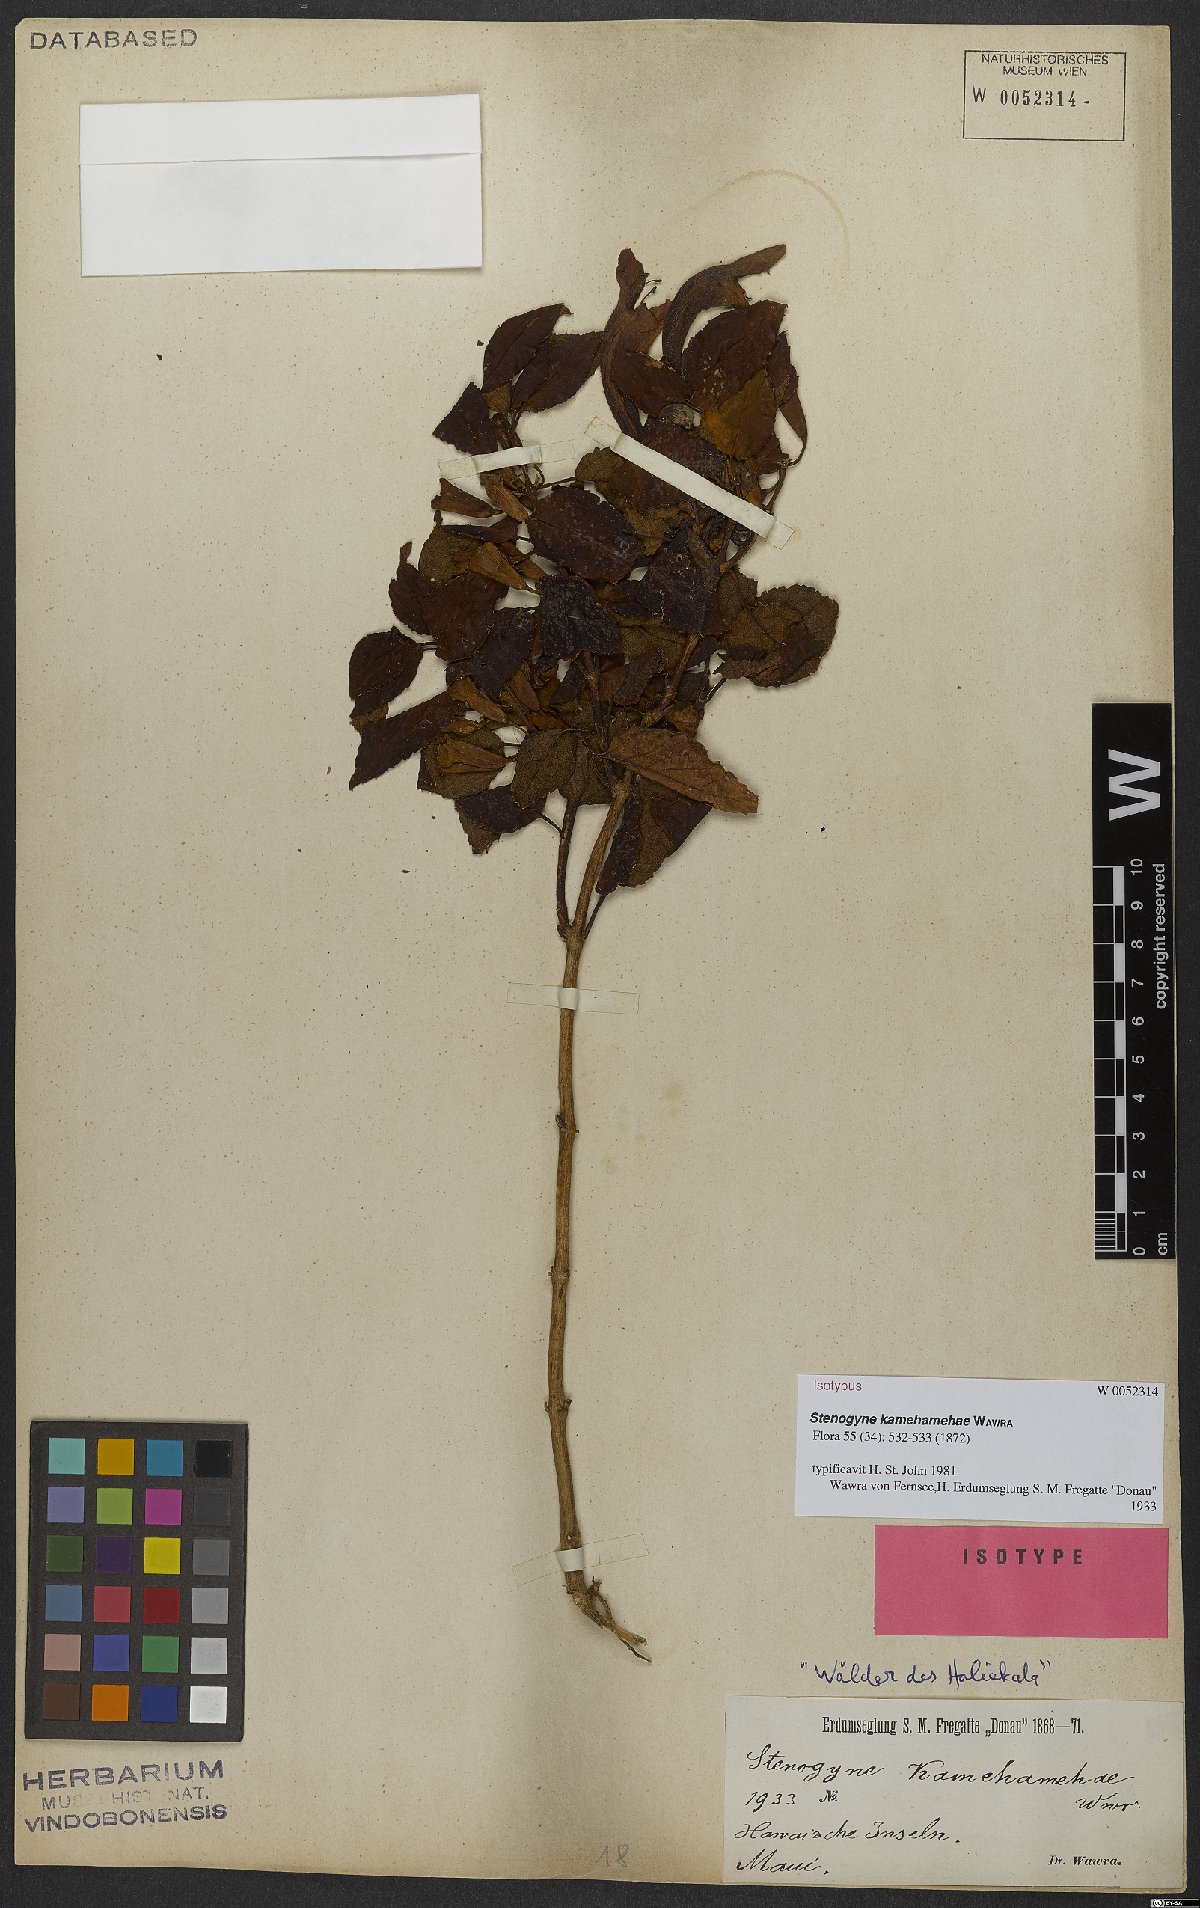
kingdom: Plantae
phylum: Tracheophyta
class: Magnoliopsida
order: Lamiales
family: Lamiaceae
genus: Stenogyne
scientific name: Stenogyne kamehamehae
